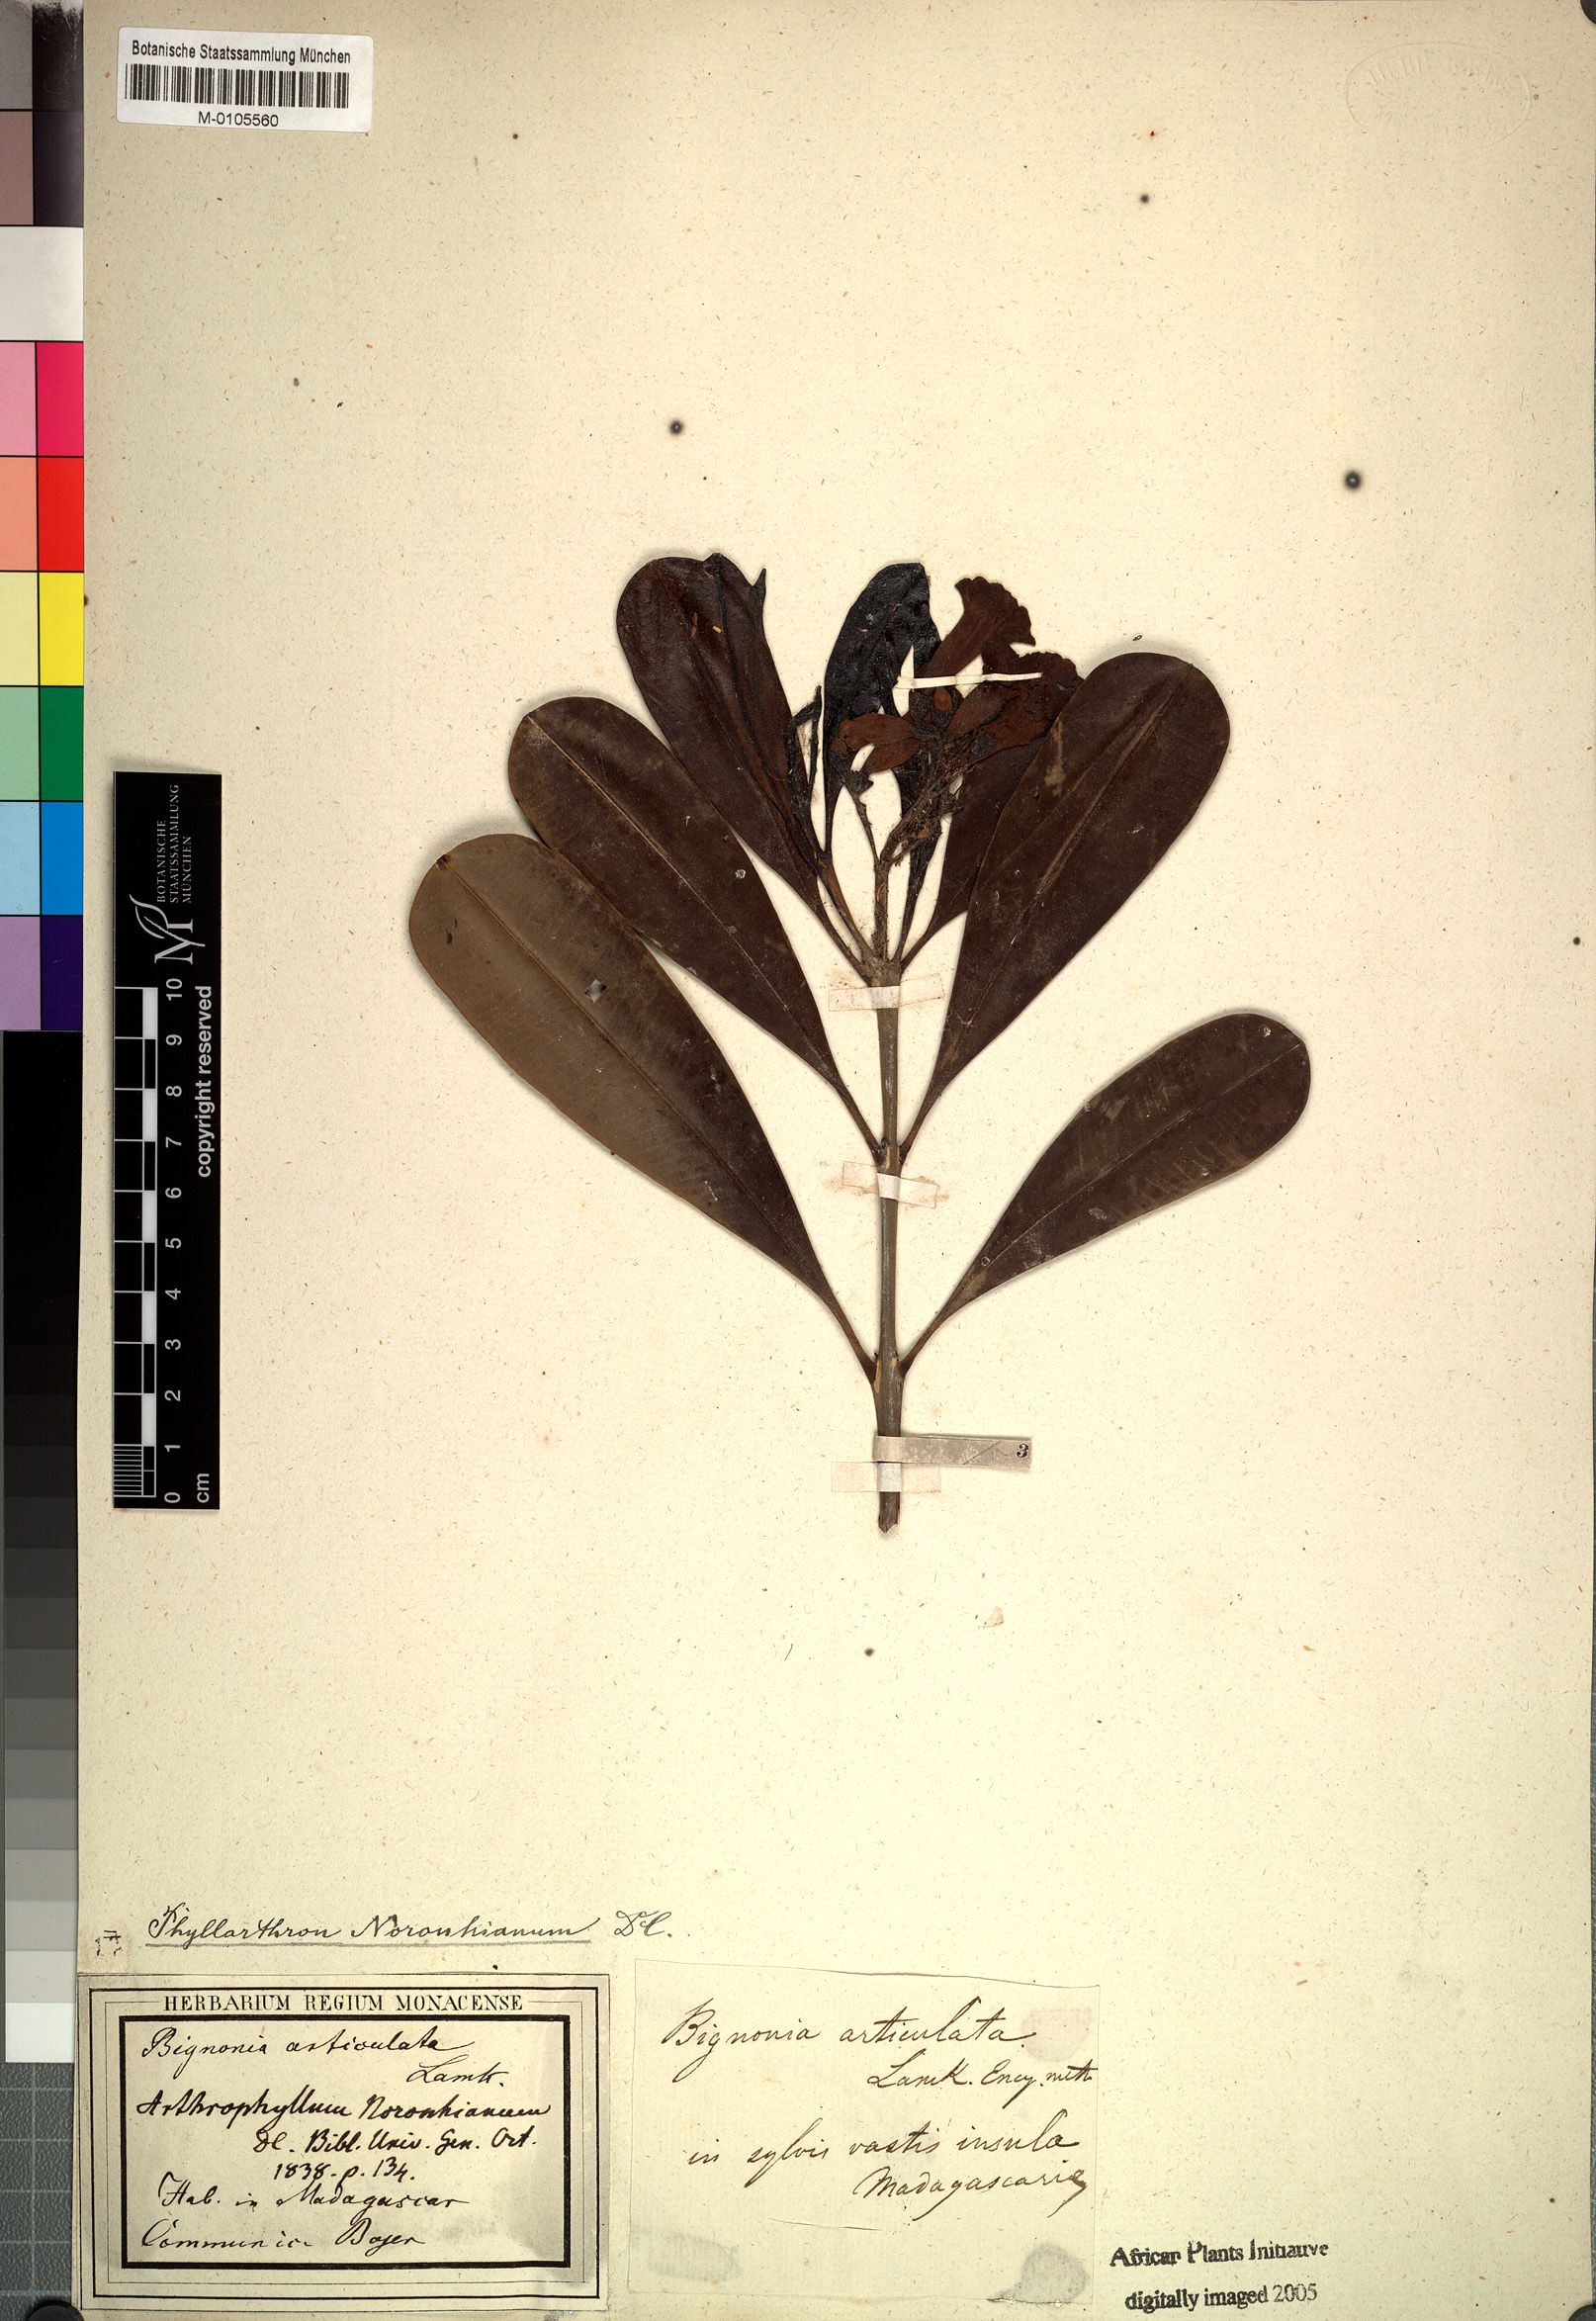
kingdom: Plantae
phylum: Tracheophyta
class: Magnoliopsida
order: Lamiales
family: Bignoniaceae
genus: Phyllarthron
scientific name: Phyllarthron articulatum
